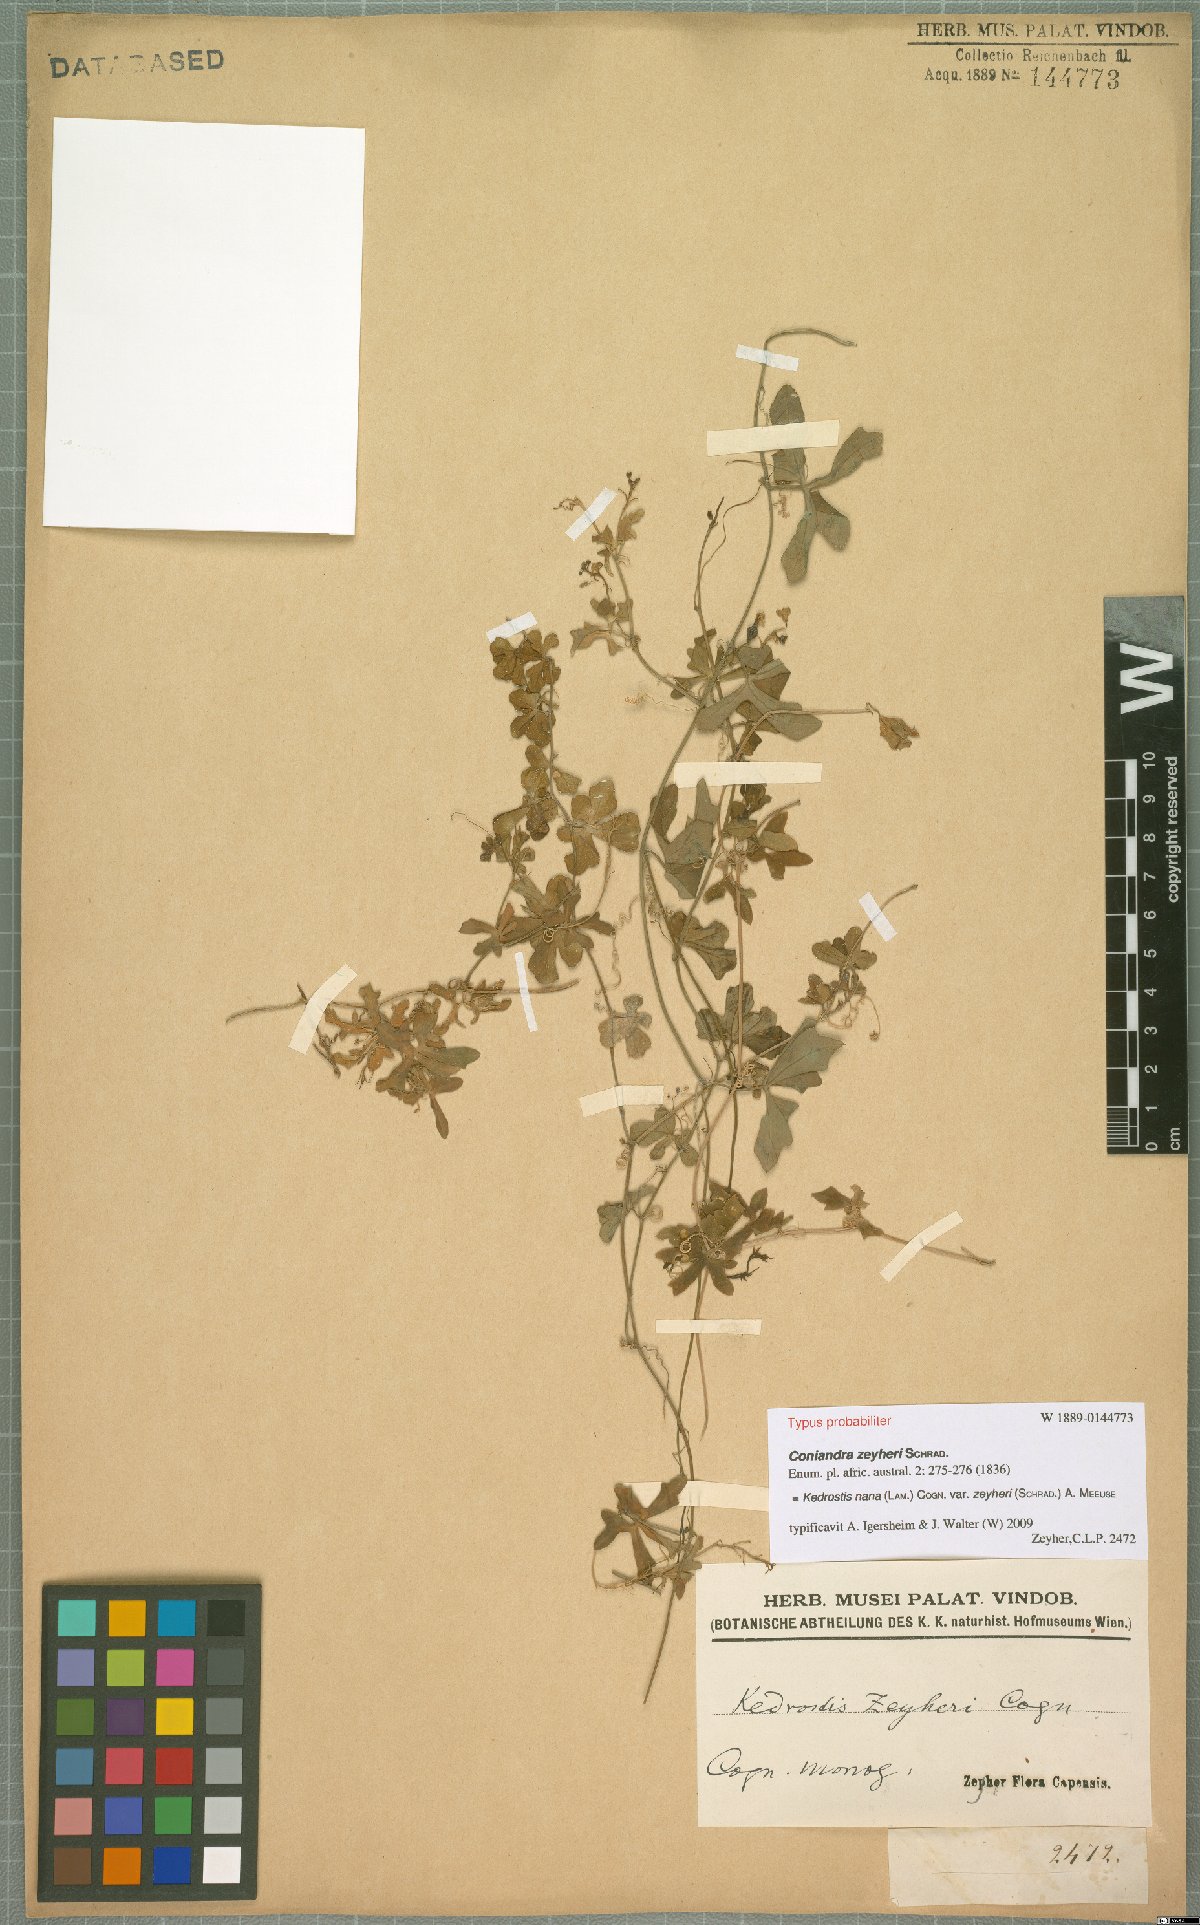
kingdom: Plantae
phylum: Tracheophyta
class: Magnoliopsida
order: Cucurbitales
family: Cucurbitaceae
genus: Kedrostis
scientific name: Kedrostis nana
